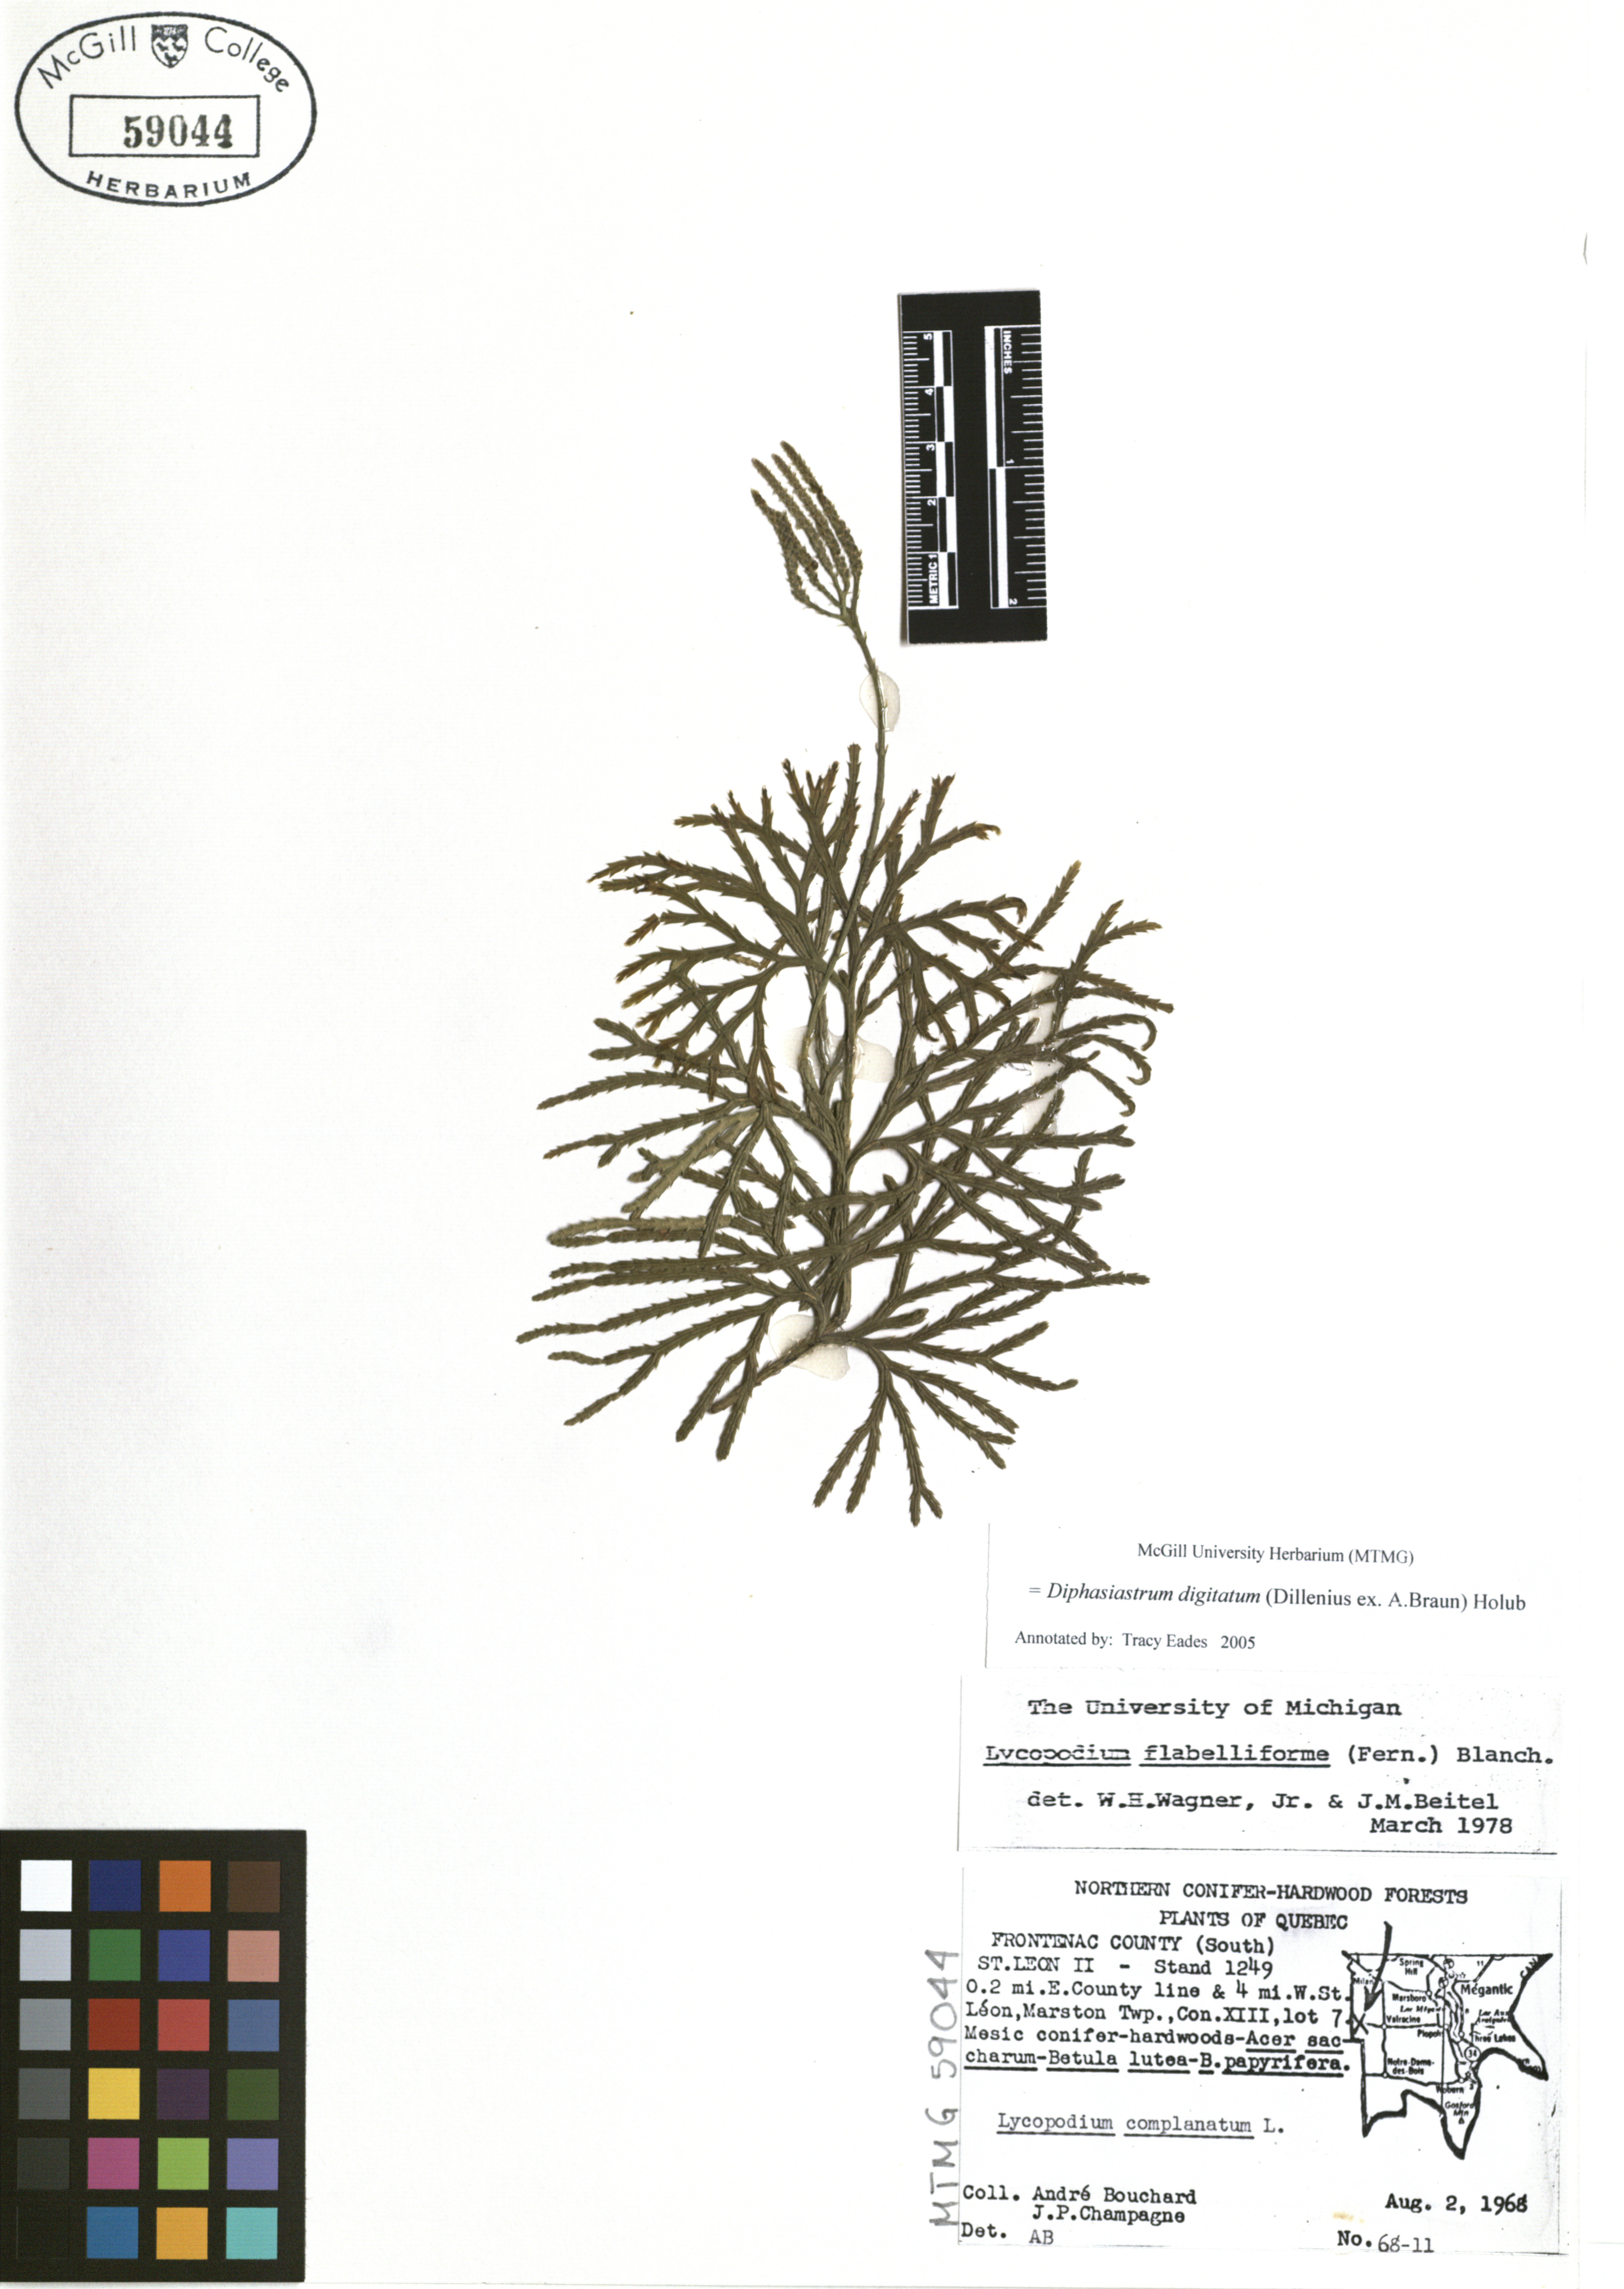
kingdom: Plantae
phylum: Tracheophyta
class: Lycopodiopsida
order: Lycopodiales
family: Lycopodiaceae
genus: Diphasiastrum
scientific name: Diphasiastrum digitatum
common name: Southern running-pine
